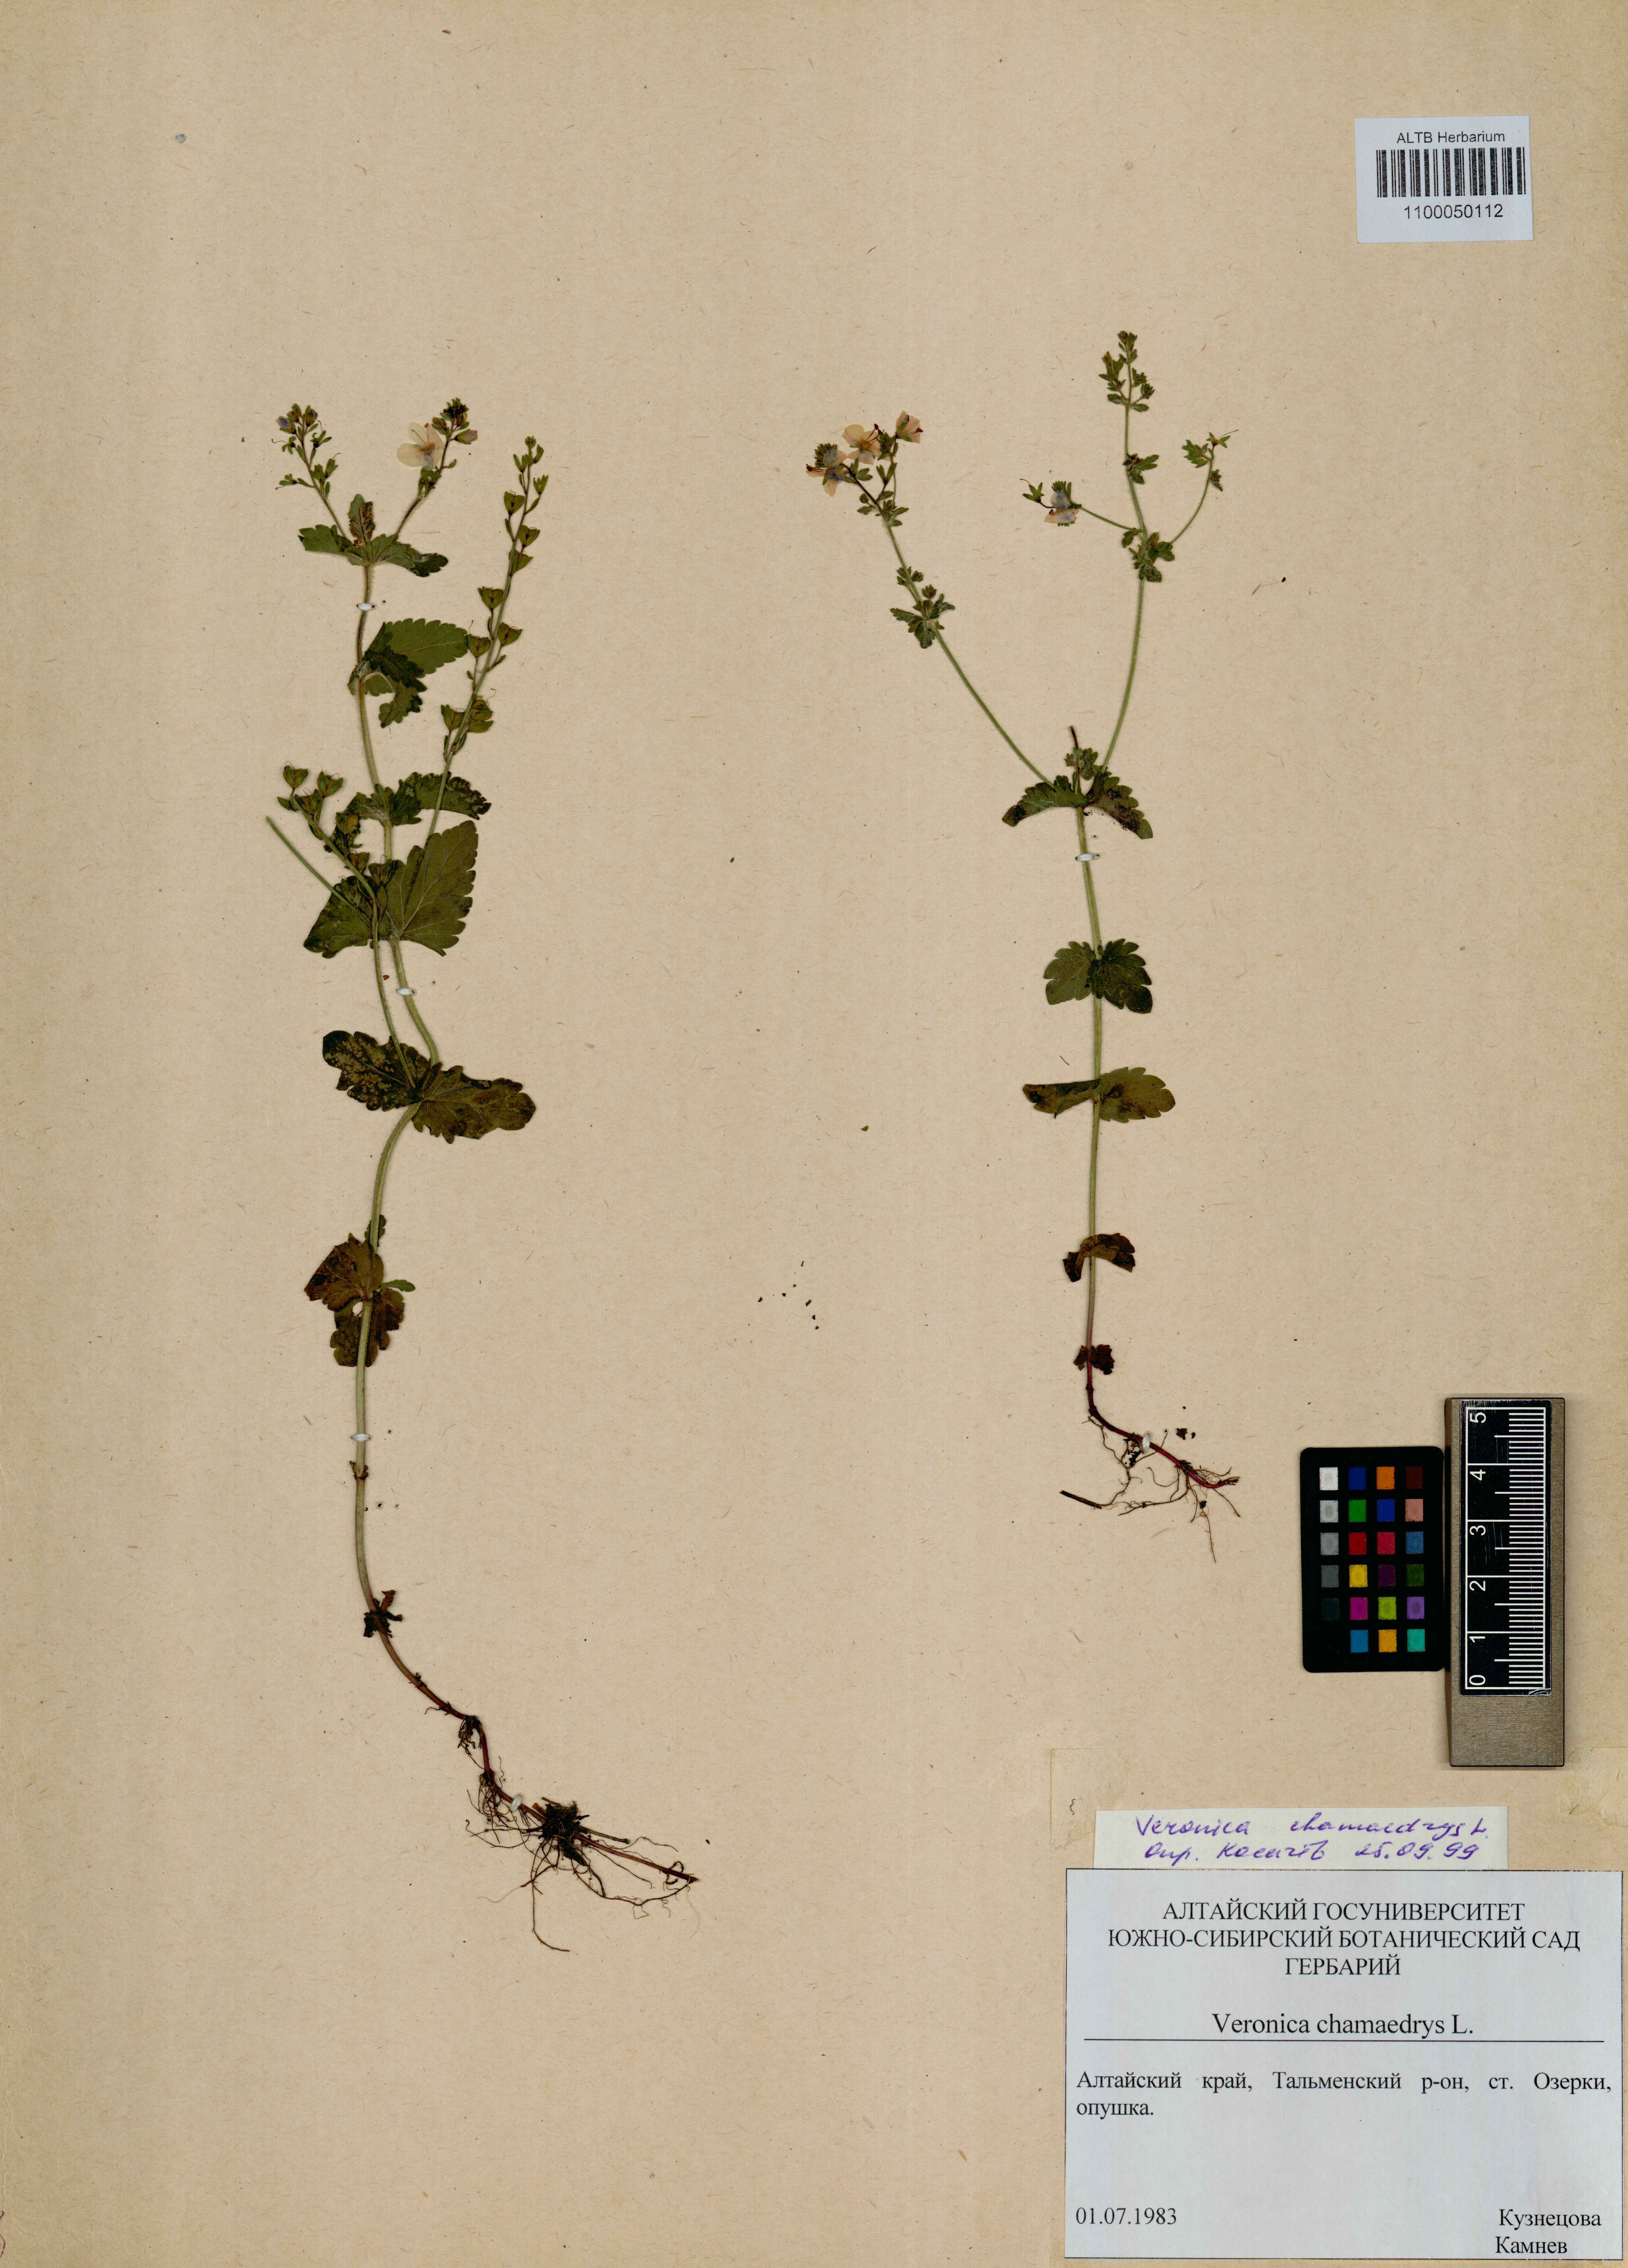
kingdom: Plantae
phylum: Tracheophyta
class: Magnoliopsida
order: Lamiales
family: Plantaginaceae
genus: Veronica
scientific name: Veronica chamaedrys
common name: Germander speedwell
